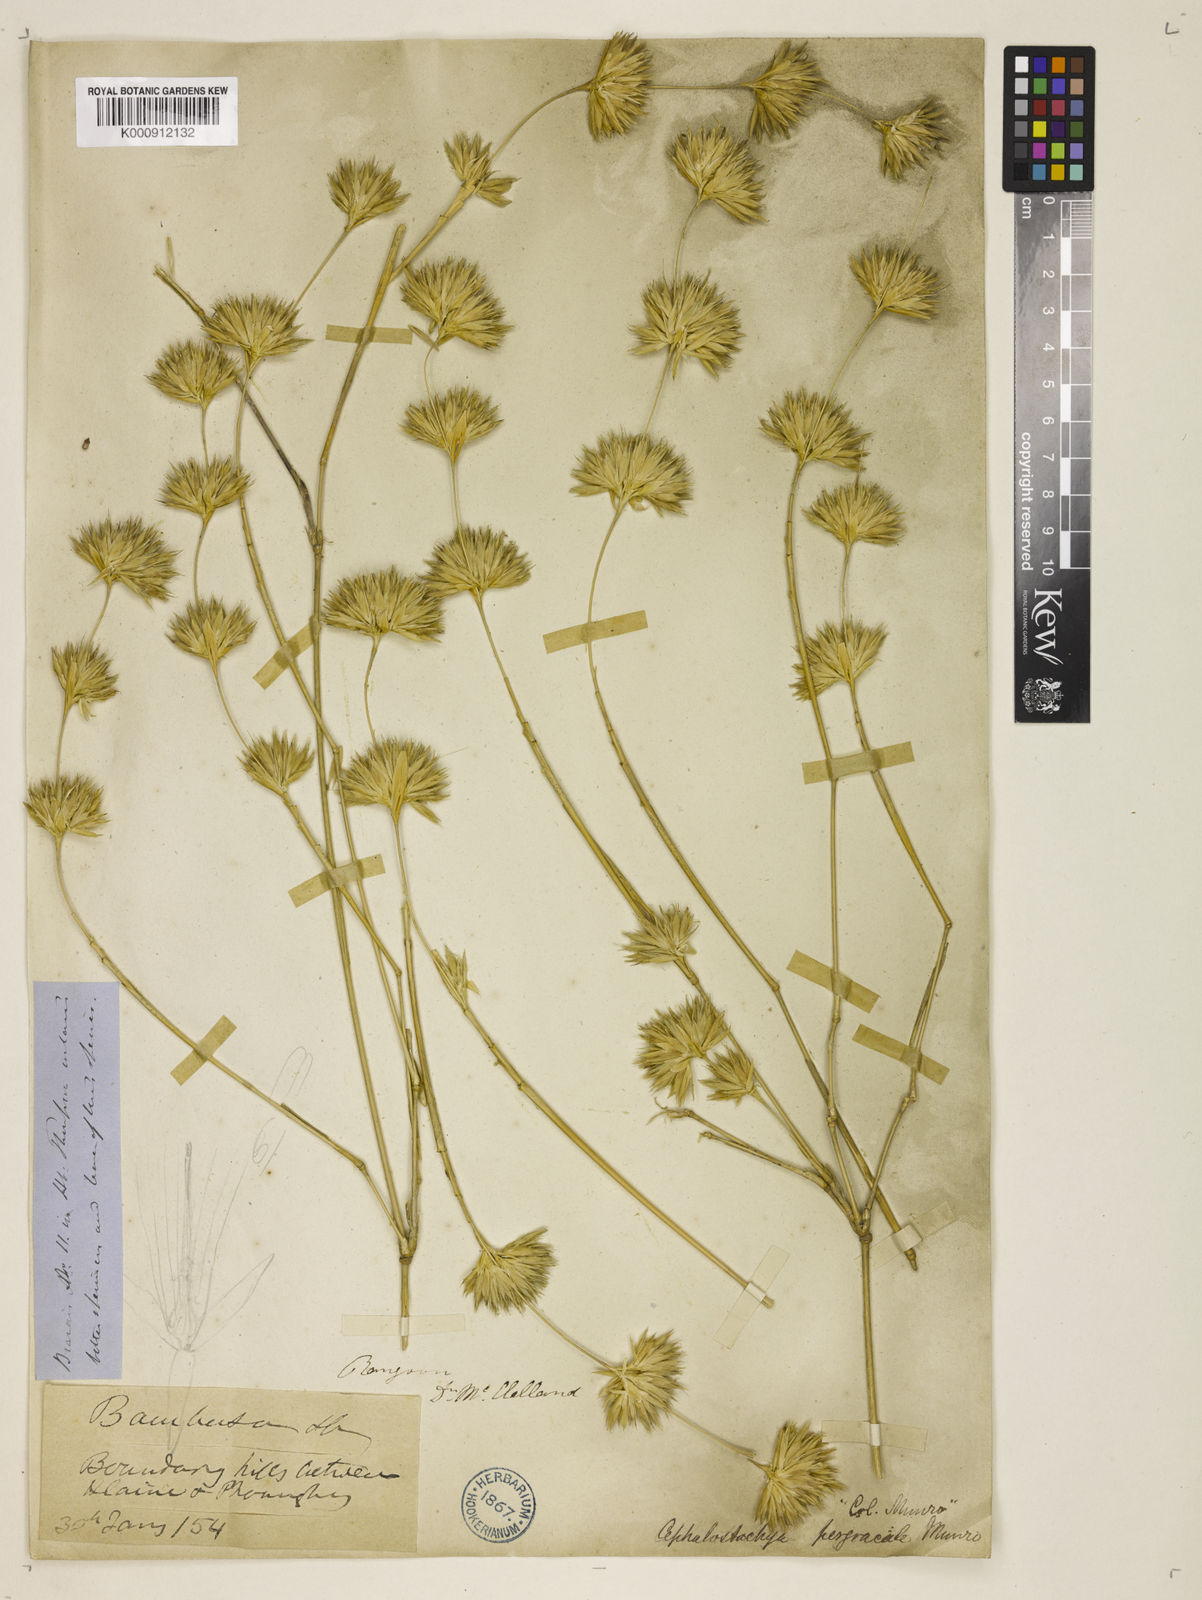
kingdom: Plantae
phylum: Tracheophyta
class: Liliopsida
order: Poales
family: Poaceae
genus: Schizostachyum
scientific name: Schizostachyum pergracile
